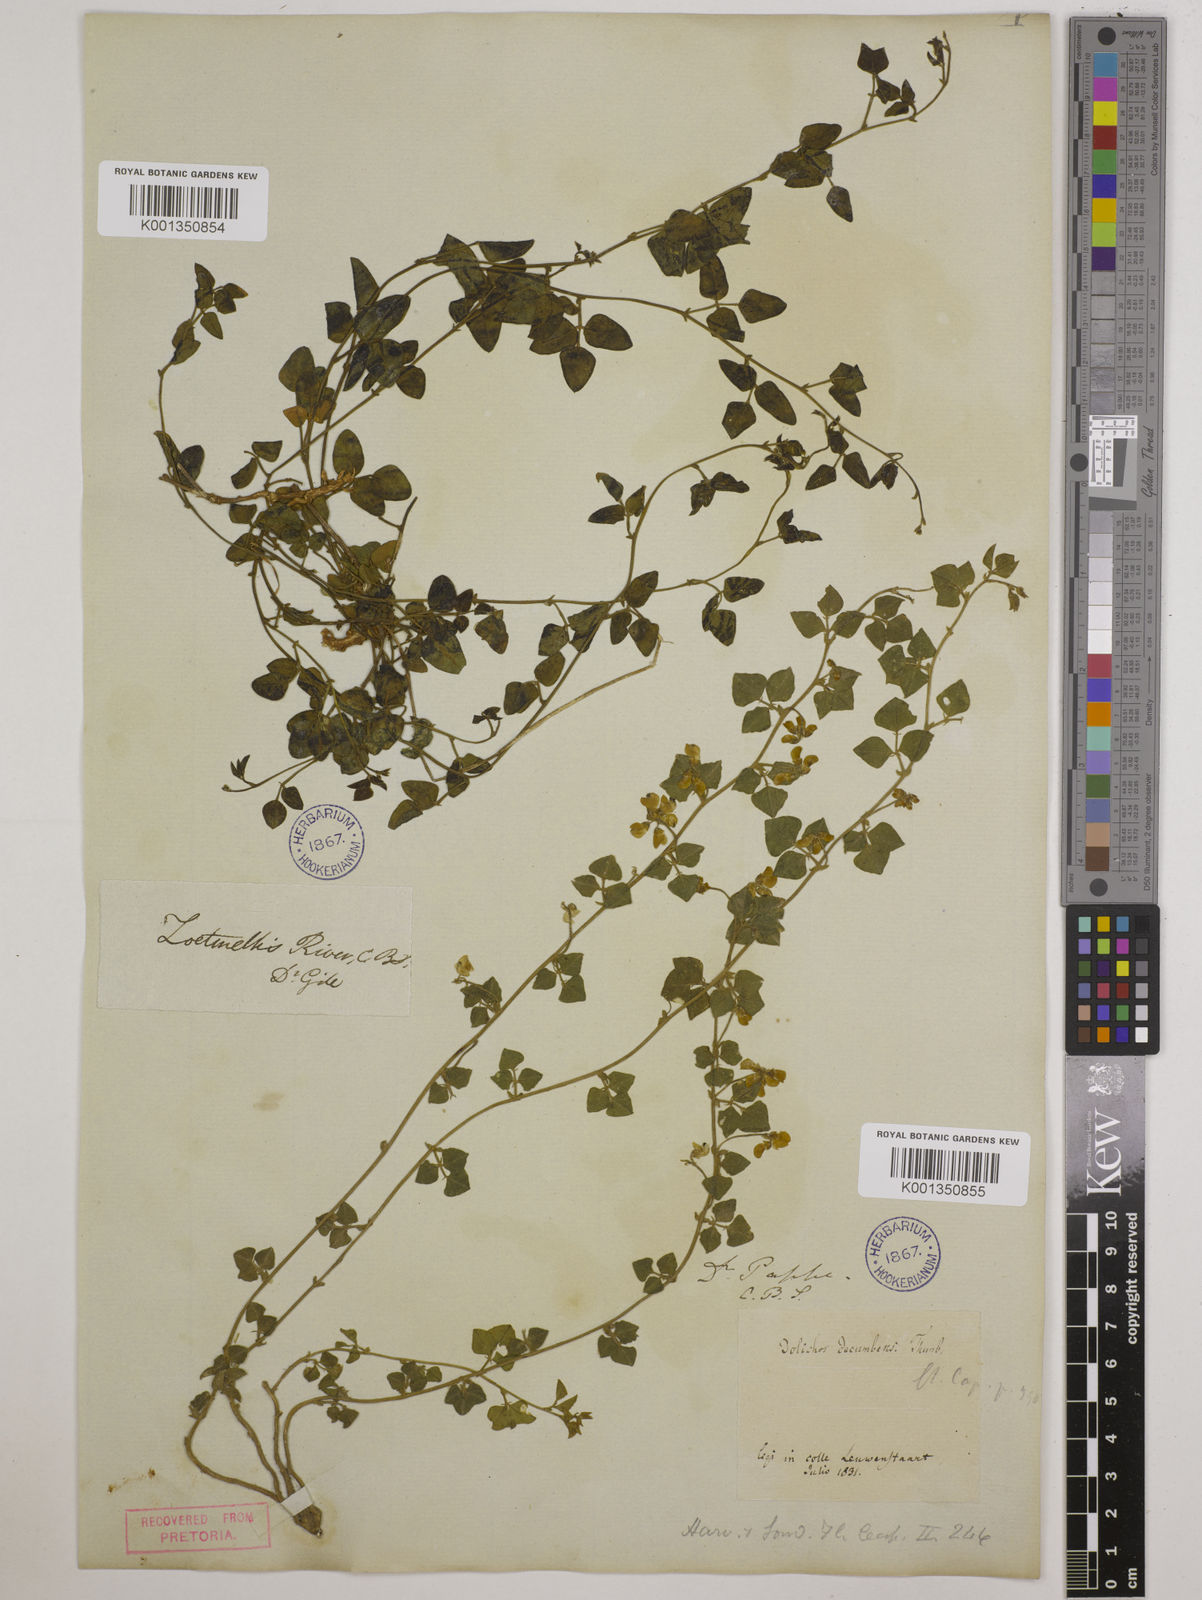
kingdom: Plantae
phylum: Tracheophyta
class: Magnoliopsida
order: Fabales
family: Fabaceae
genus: Dolichos
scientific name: Dolichos decumbens
